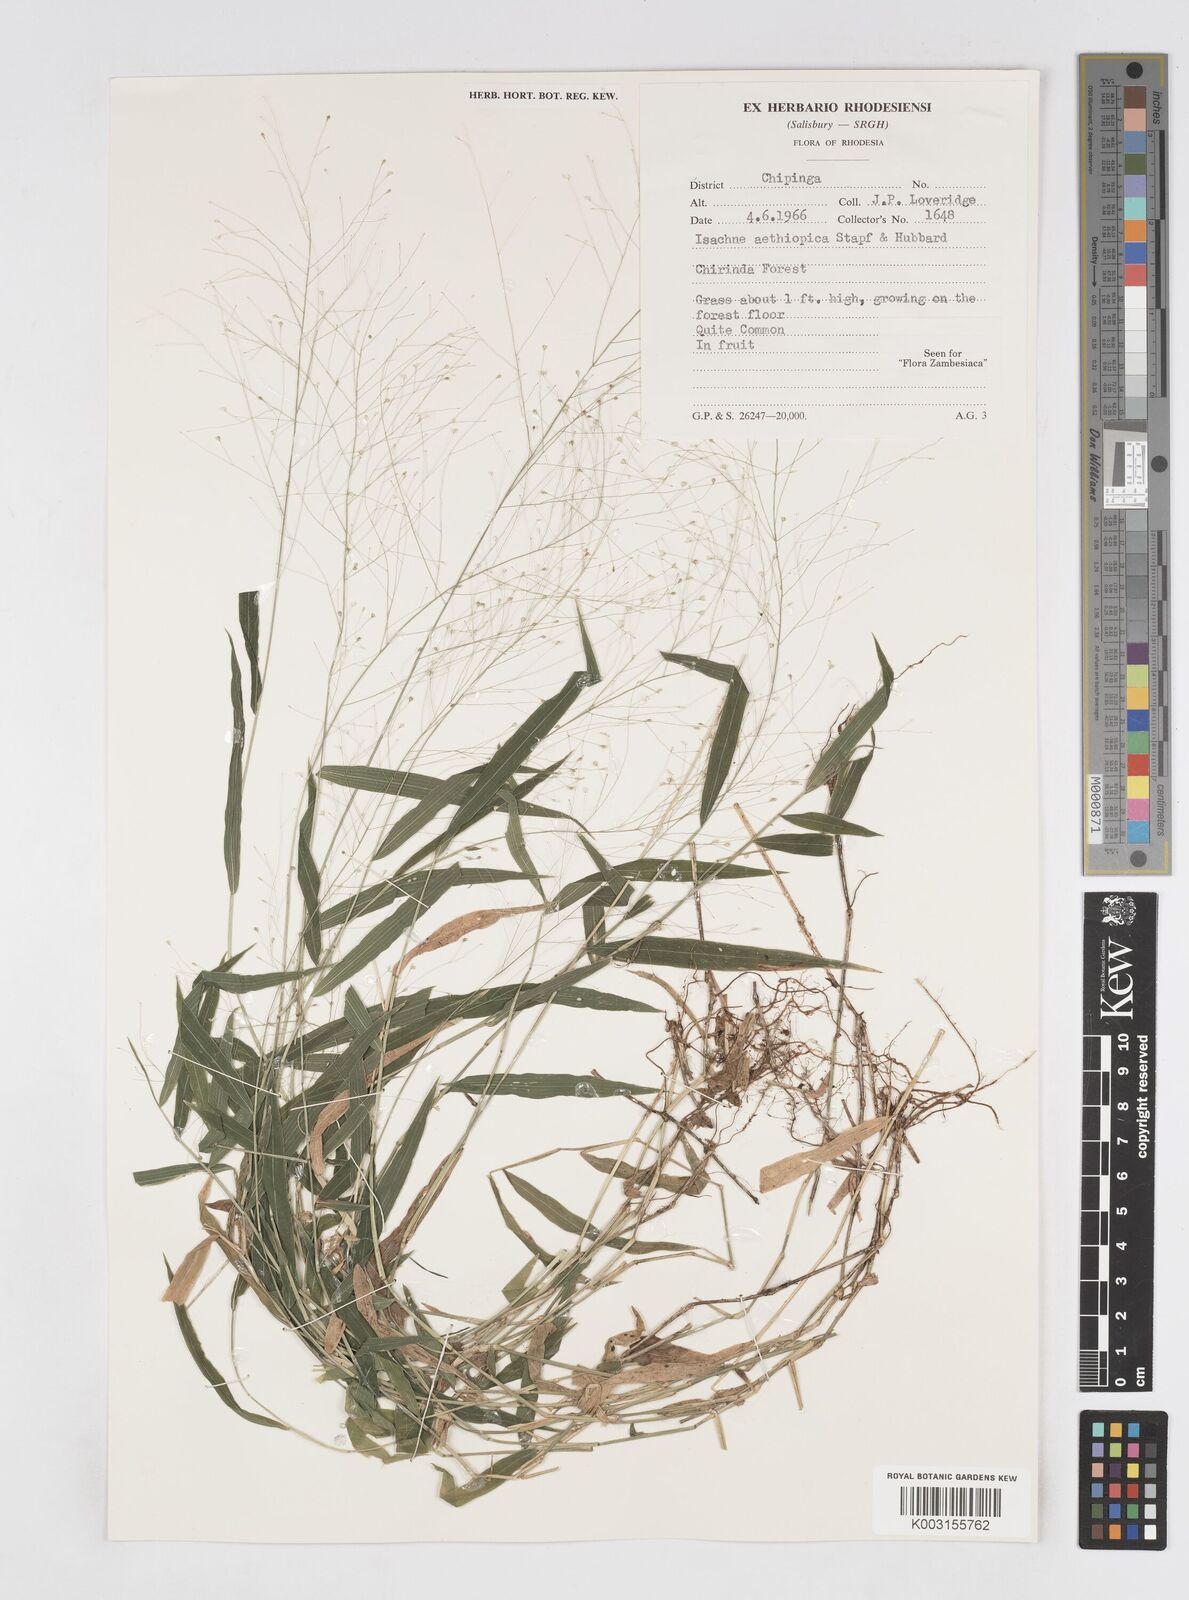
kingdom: Plantae
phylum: Tracheophyta
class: Liliopsida
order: Poales
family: Poaceae
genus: Isachne
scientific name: Isachne mauritiana
